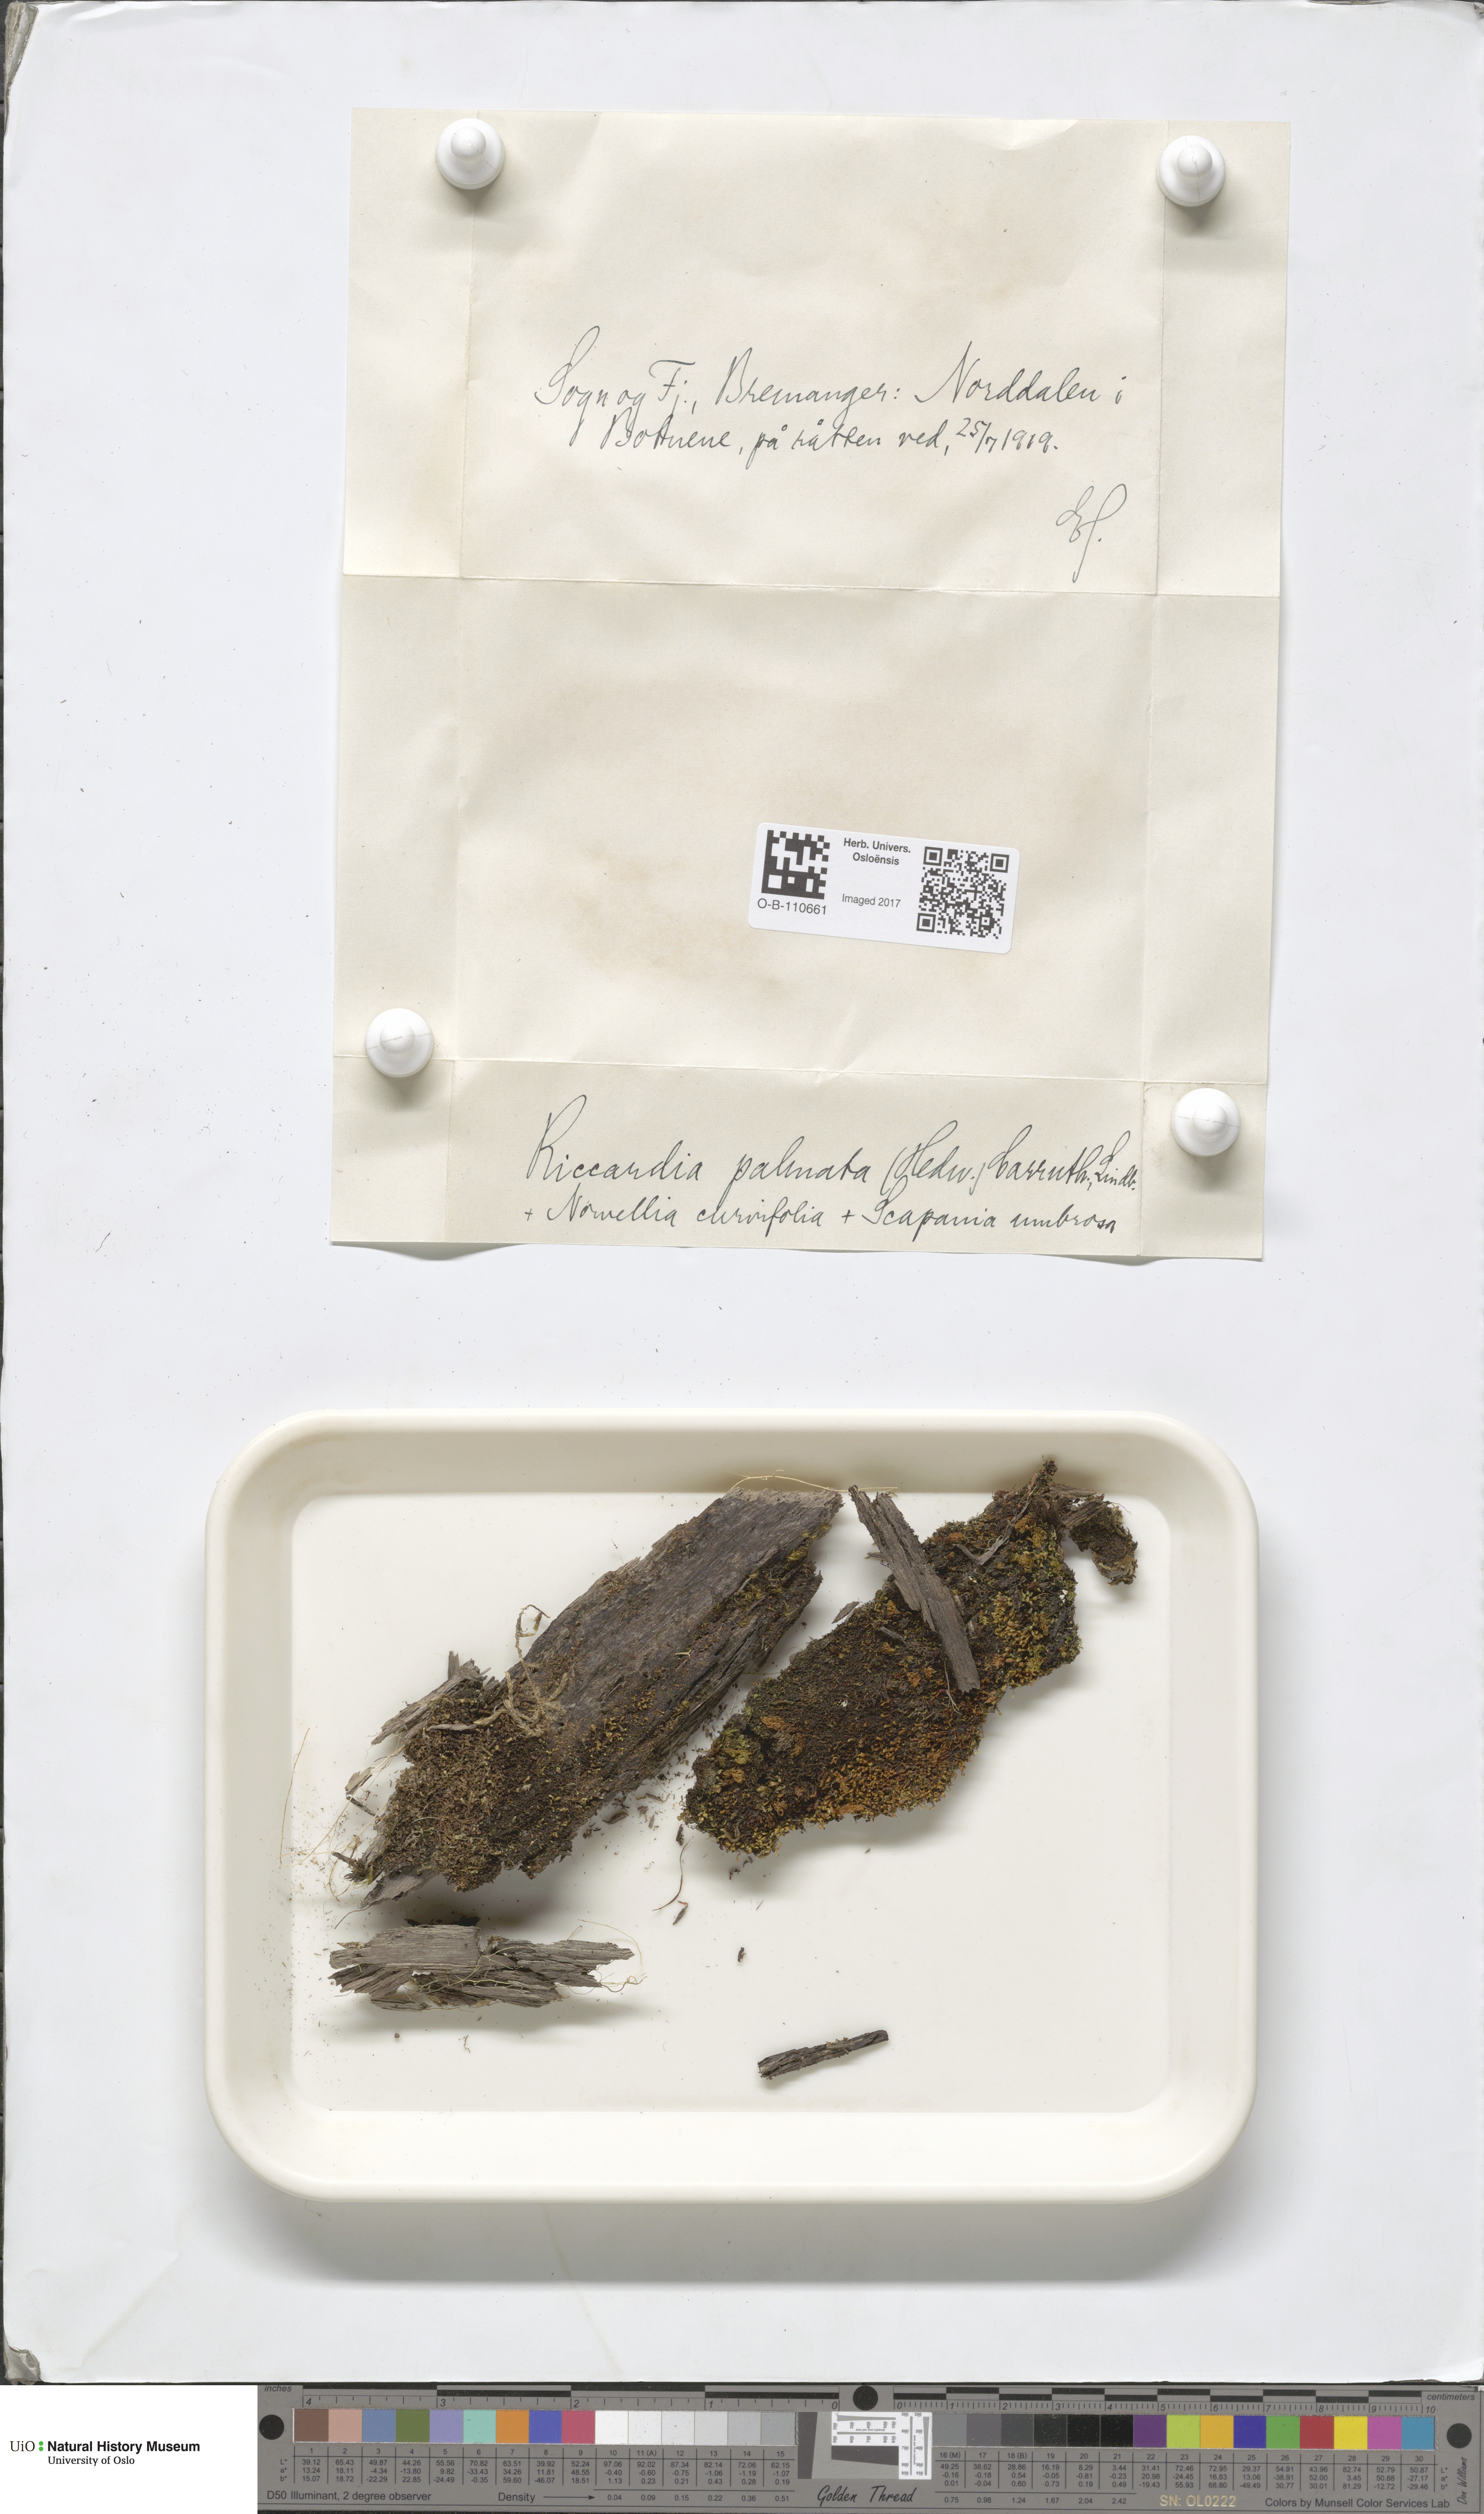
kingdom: Plantae
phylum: Marchantiophyta
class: Jungermanniopsida
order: Metzgeriales
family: Aneuraceae
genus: Riccardia
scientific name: Riccardia palmata
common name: Palmate germanderwort
